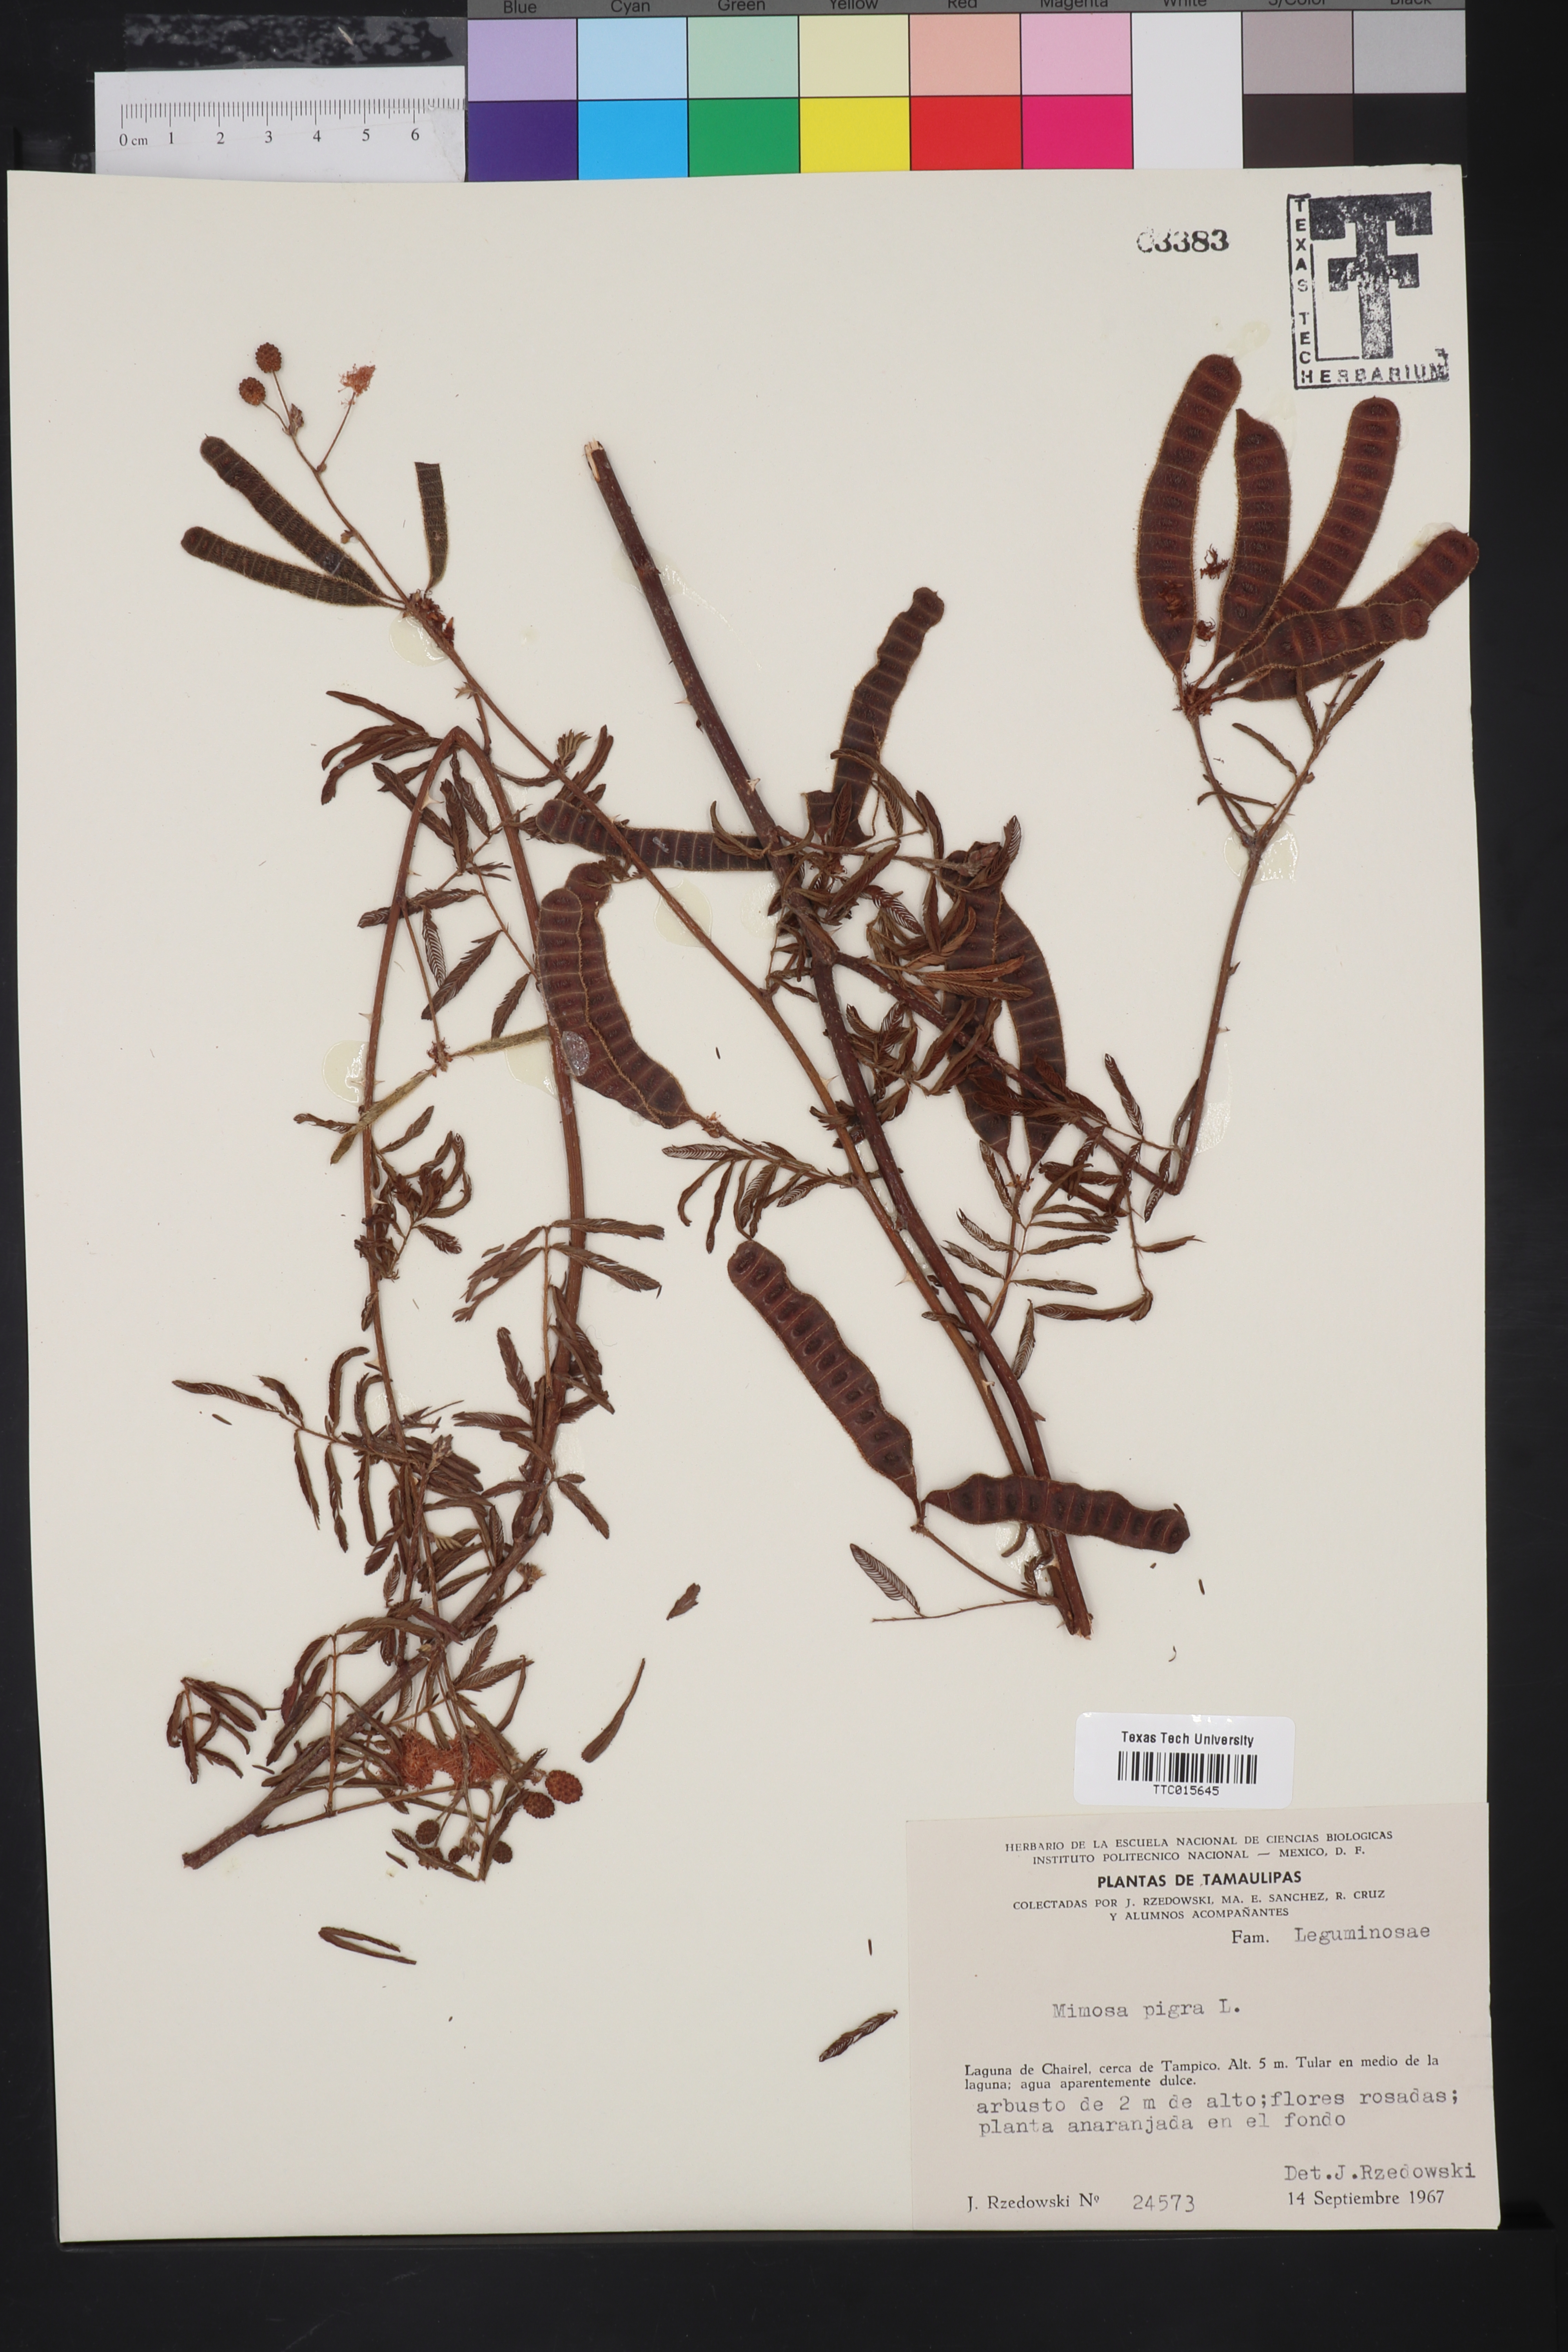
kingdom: Plantae
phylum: Tracheophyta
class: Magnoliopsida
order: Fabales
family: Fabaceae
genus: Mimosa
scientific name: Mimosa tenuiflora
